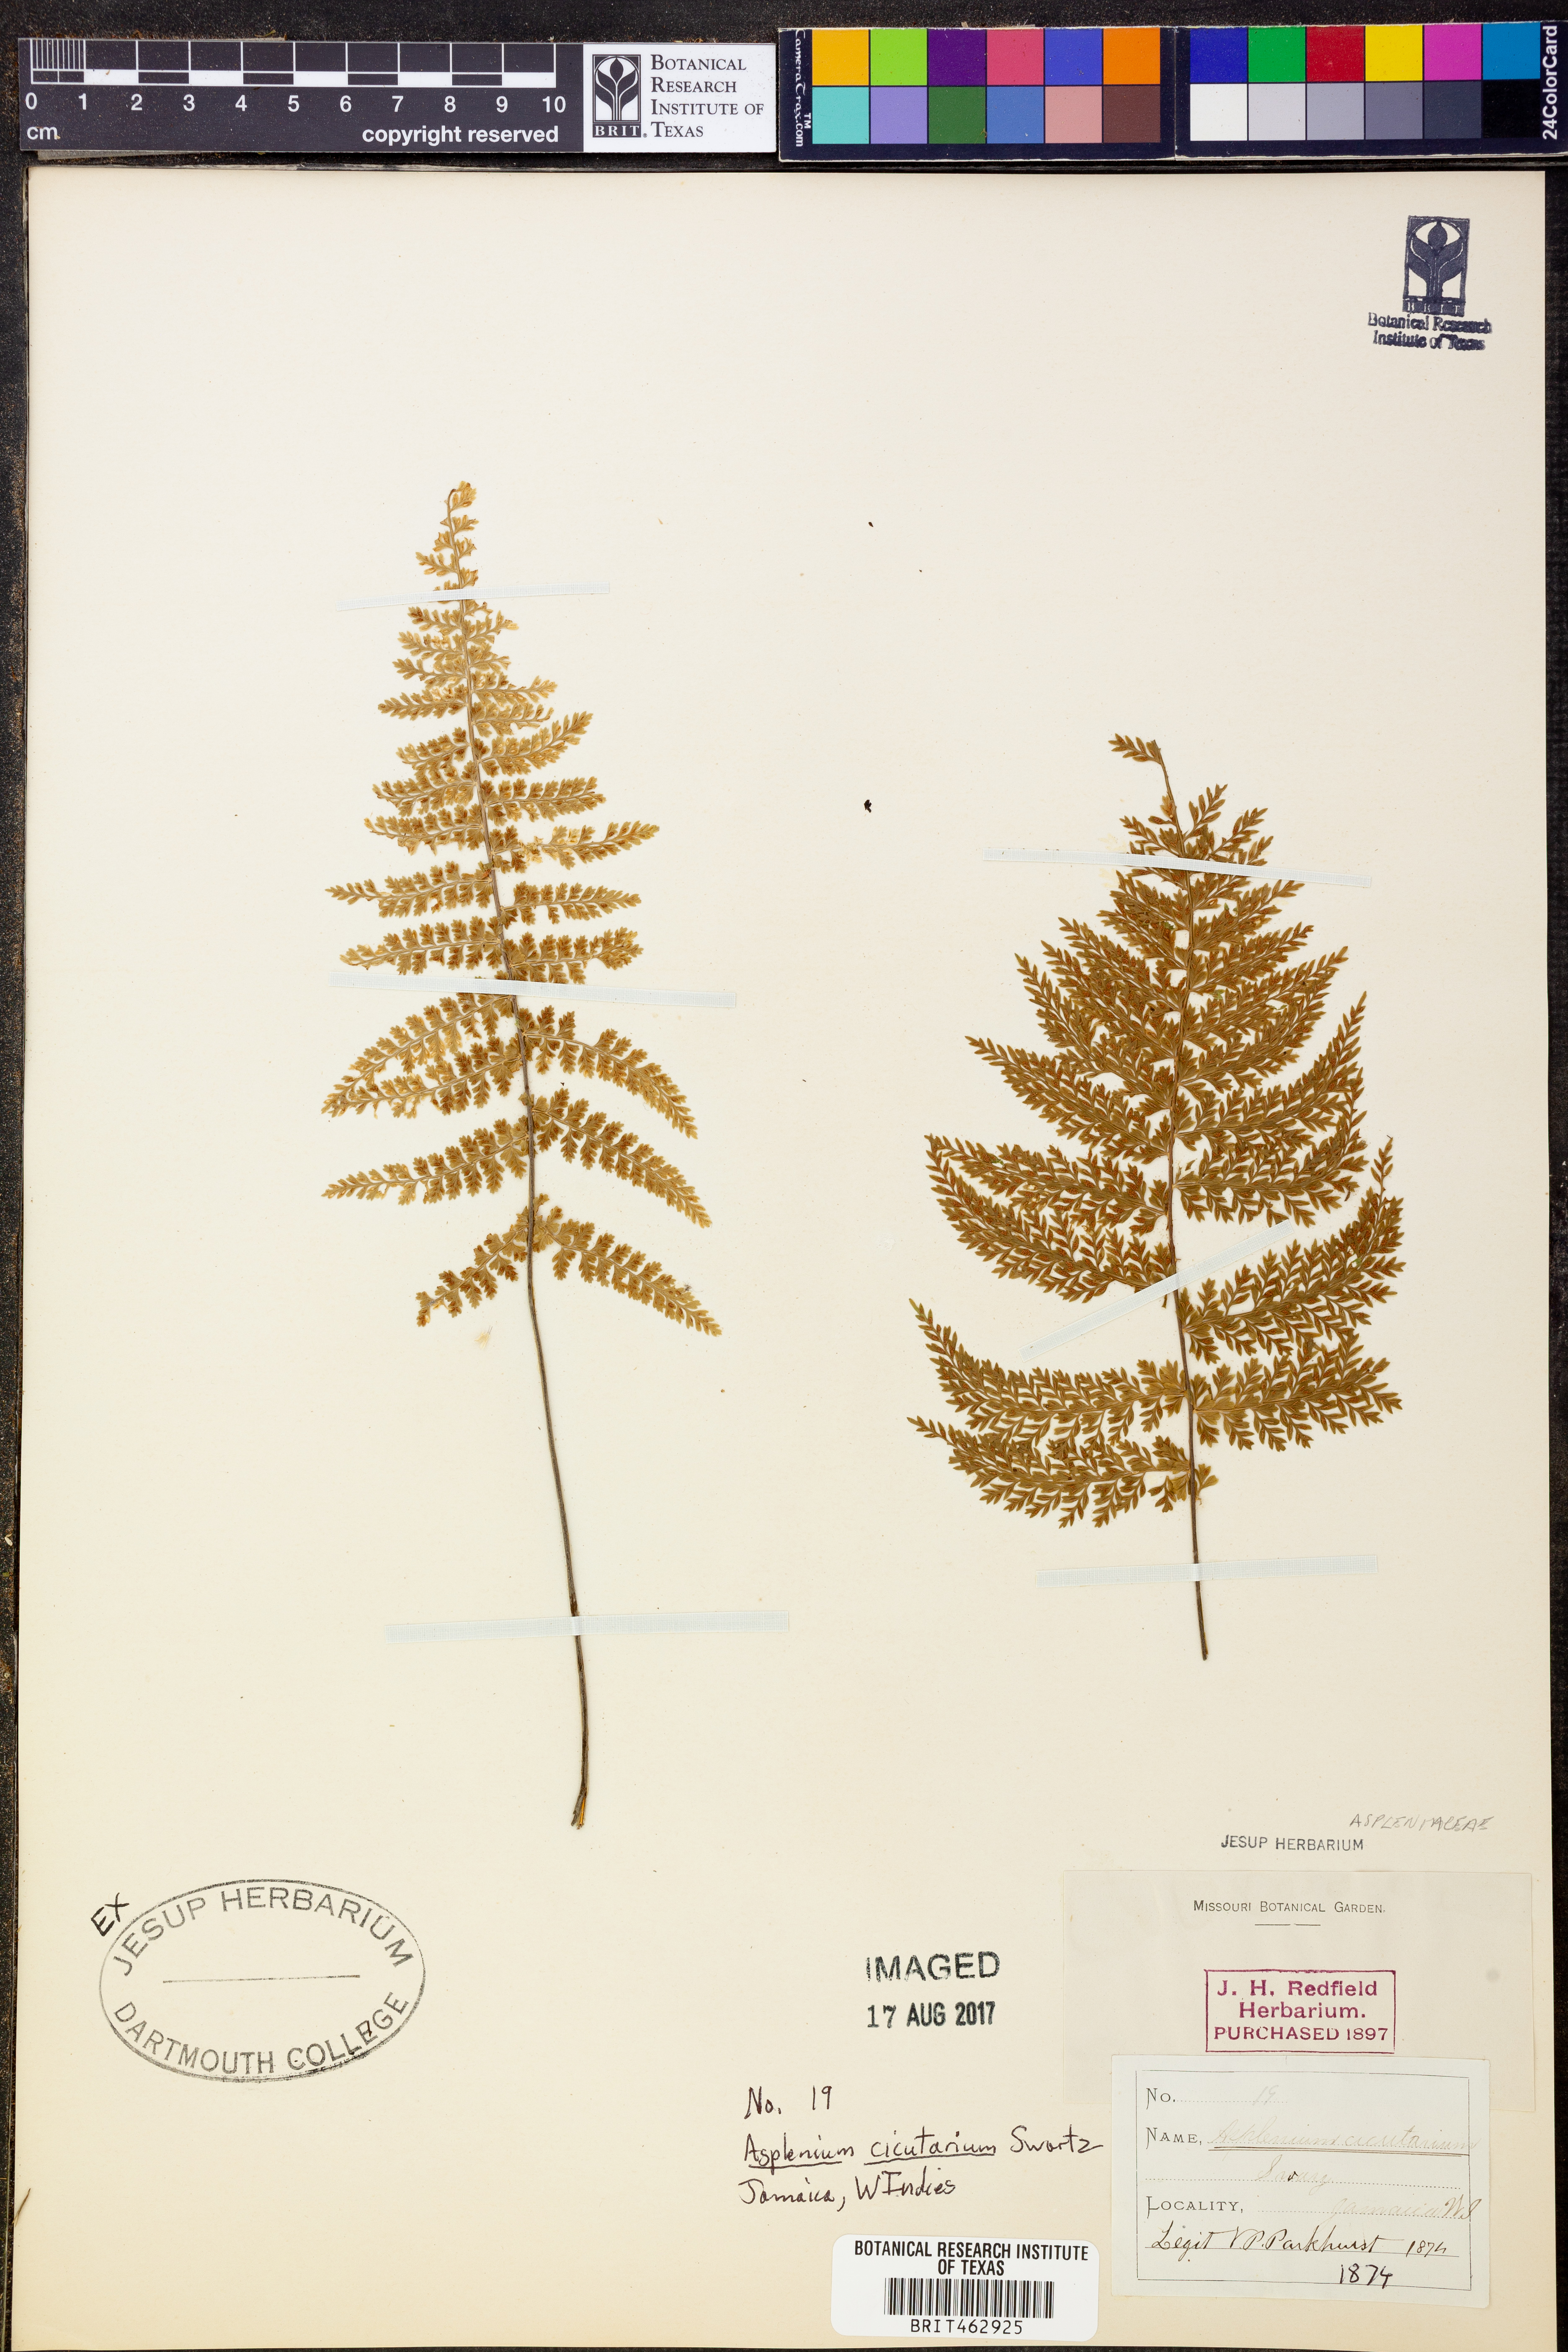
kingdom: Plantae
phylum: Tracheophyta
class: Polypodiopsida
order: Polypodiales
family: Aspleniaceae
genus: Asplenium
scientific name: Asplenium cristatum
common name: Parsley spleenwort
